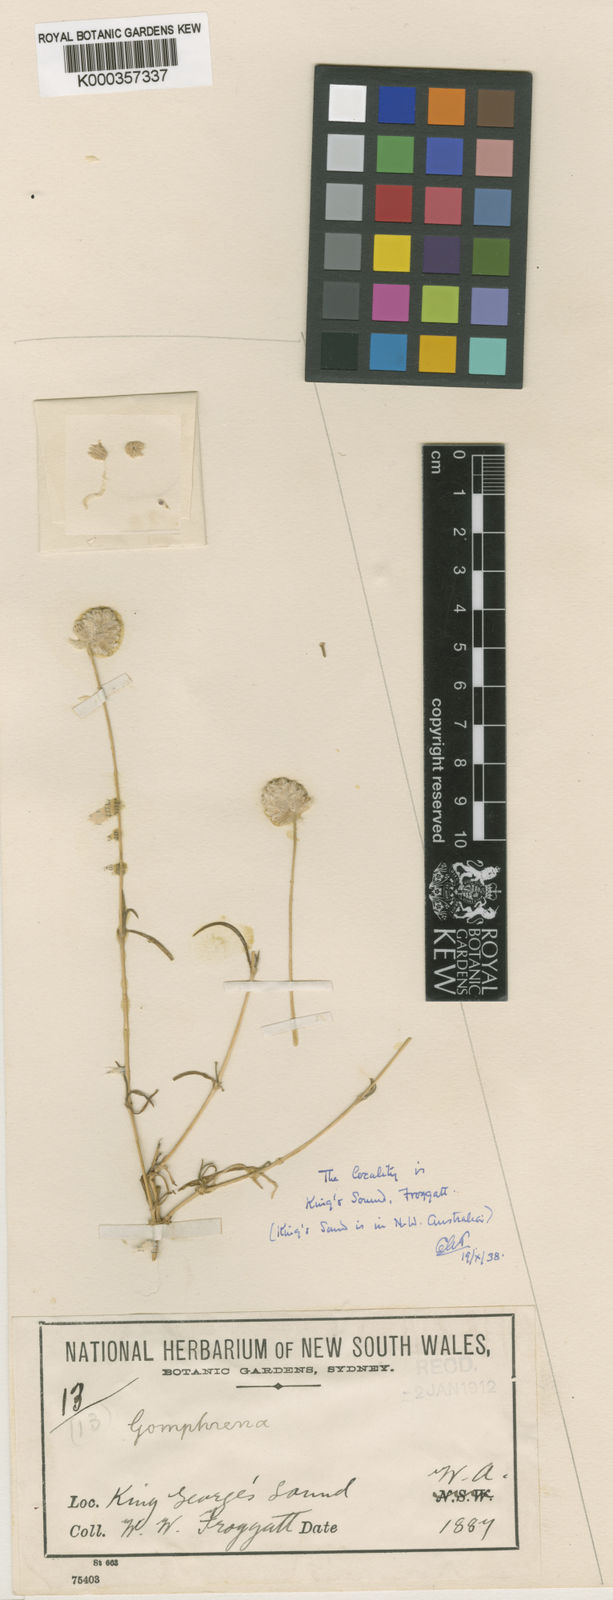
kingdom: Plantae
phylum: Tracheophyta
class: Magnoliopsida
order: Caryophyllales
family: Amaranthaceae
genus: Gomphrena
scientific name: Gomphrena
